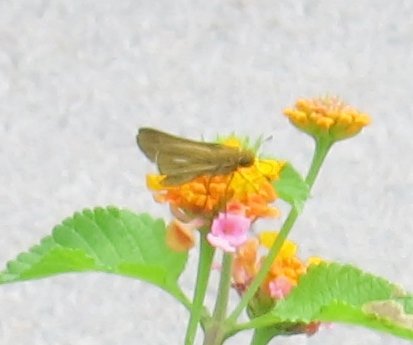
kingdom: Animalia
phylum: Arthropoda
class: Insecta
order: Lepidoptera
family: Hesperiidae
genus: Panoquina
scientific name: Panoquina panoquin
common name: Salt Marsh Skipper
